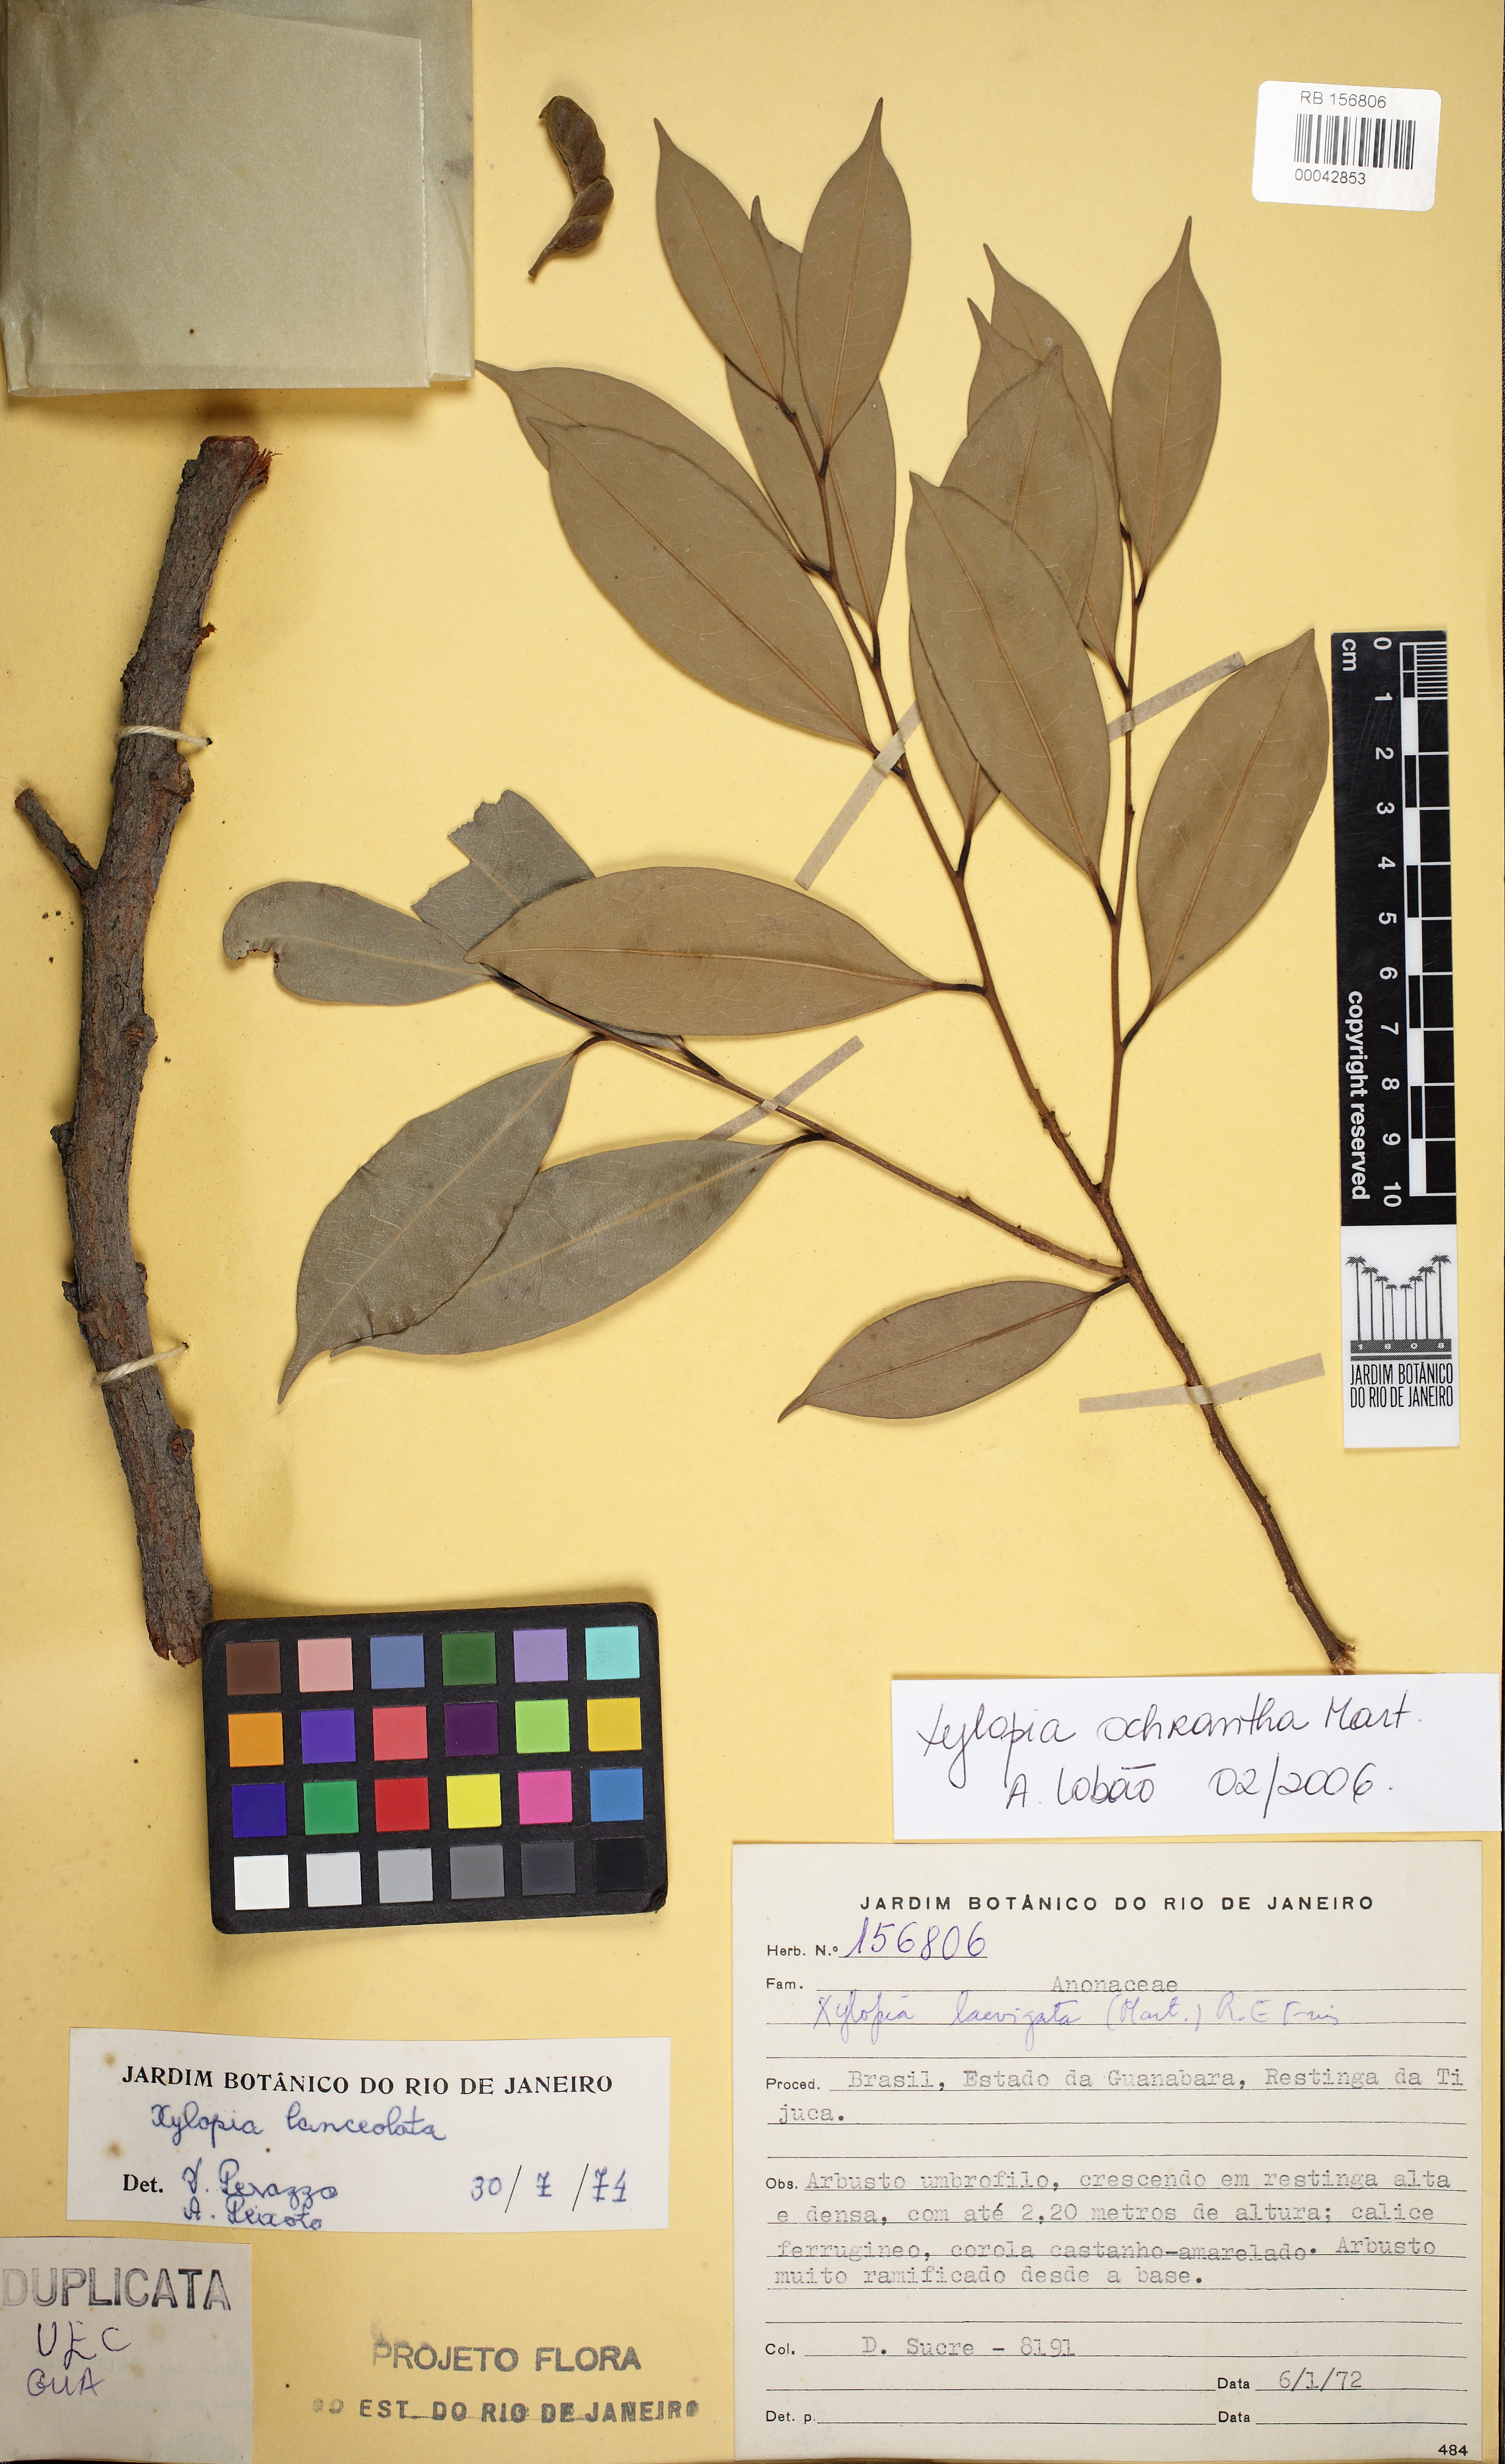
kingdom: Plantae
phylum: Tracheophyta
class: Magnoliopsida
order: Magnoliales
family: Annonaceae
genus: Xylopia
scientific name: Xylopia ochrantha
